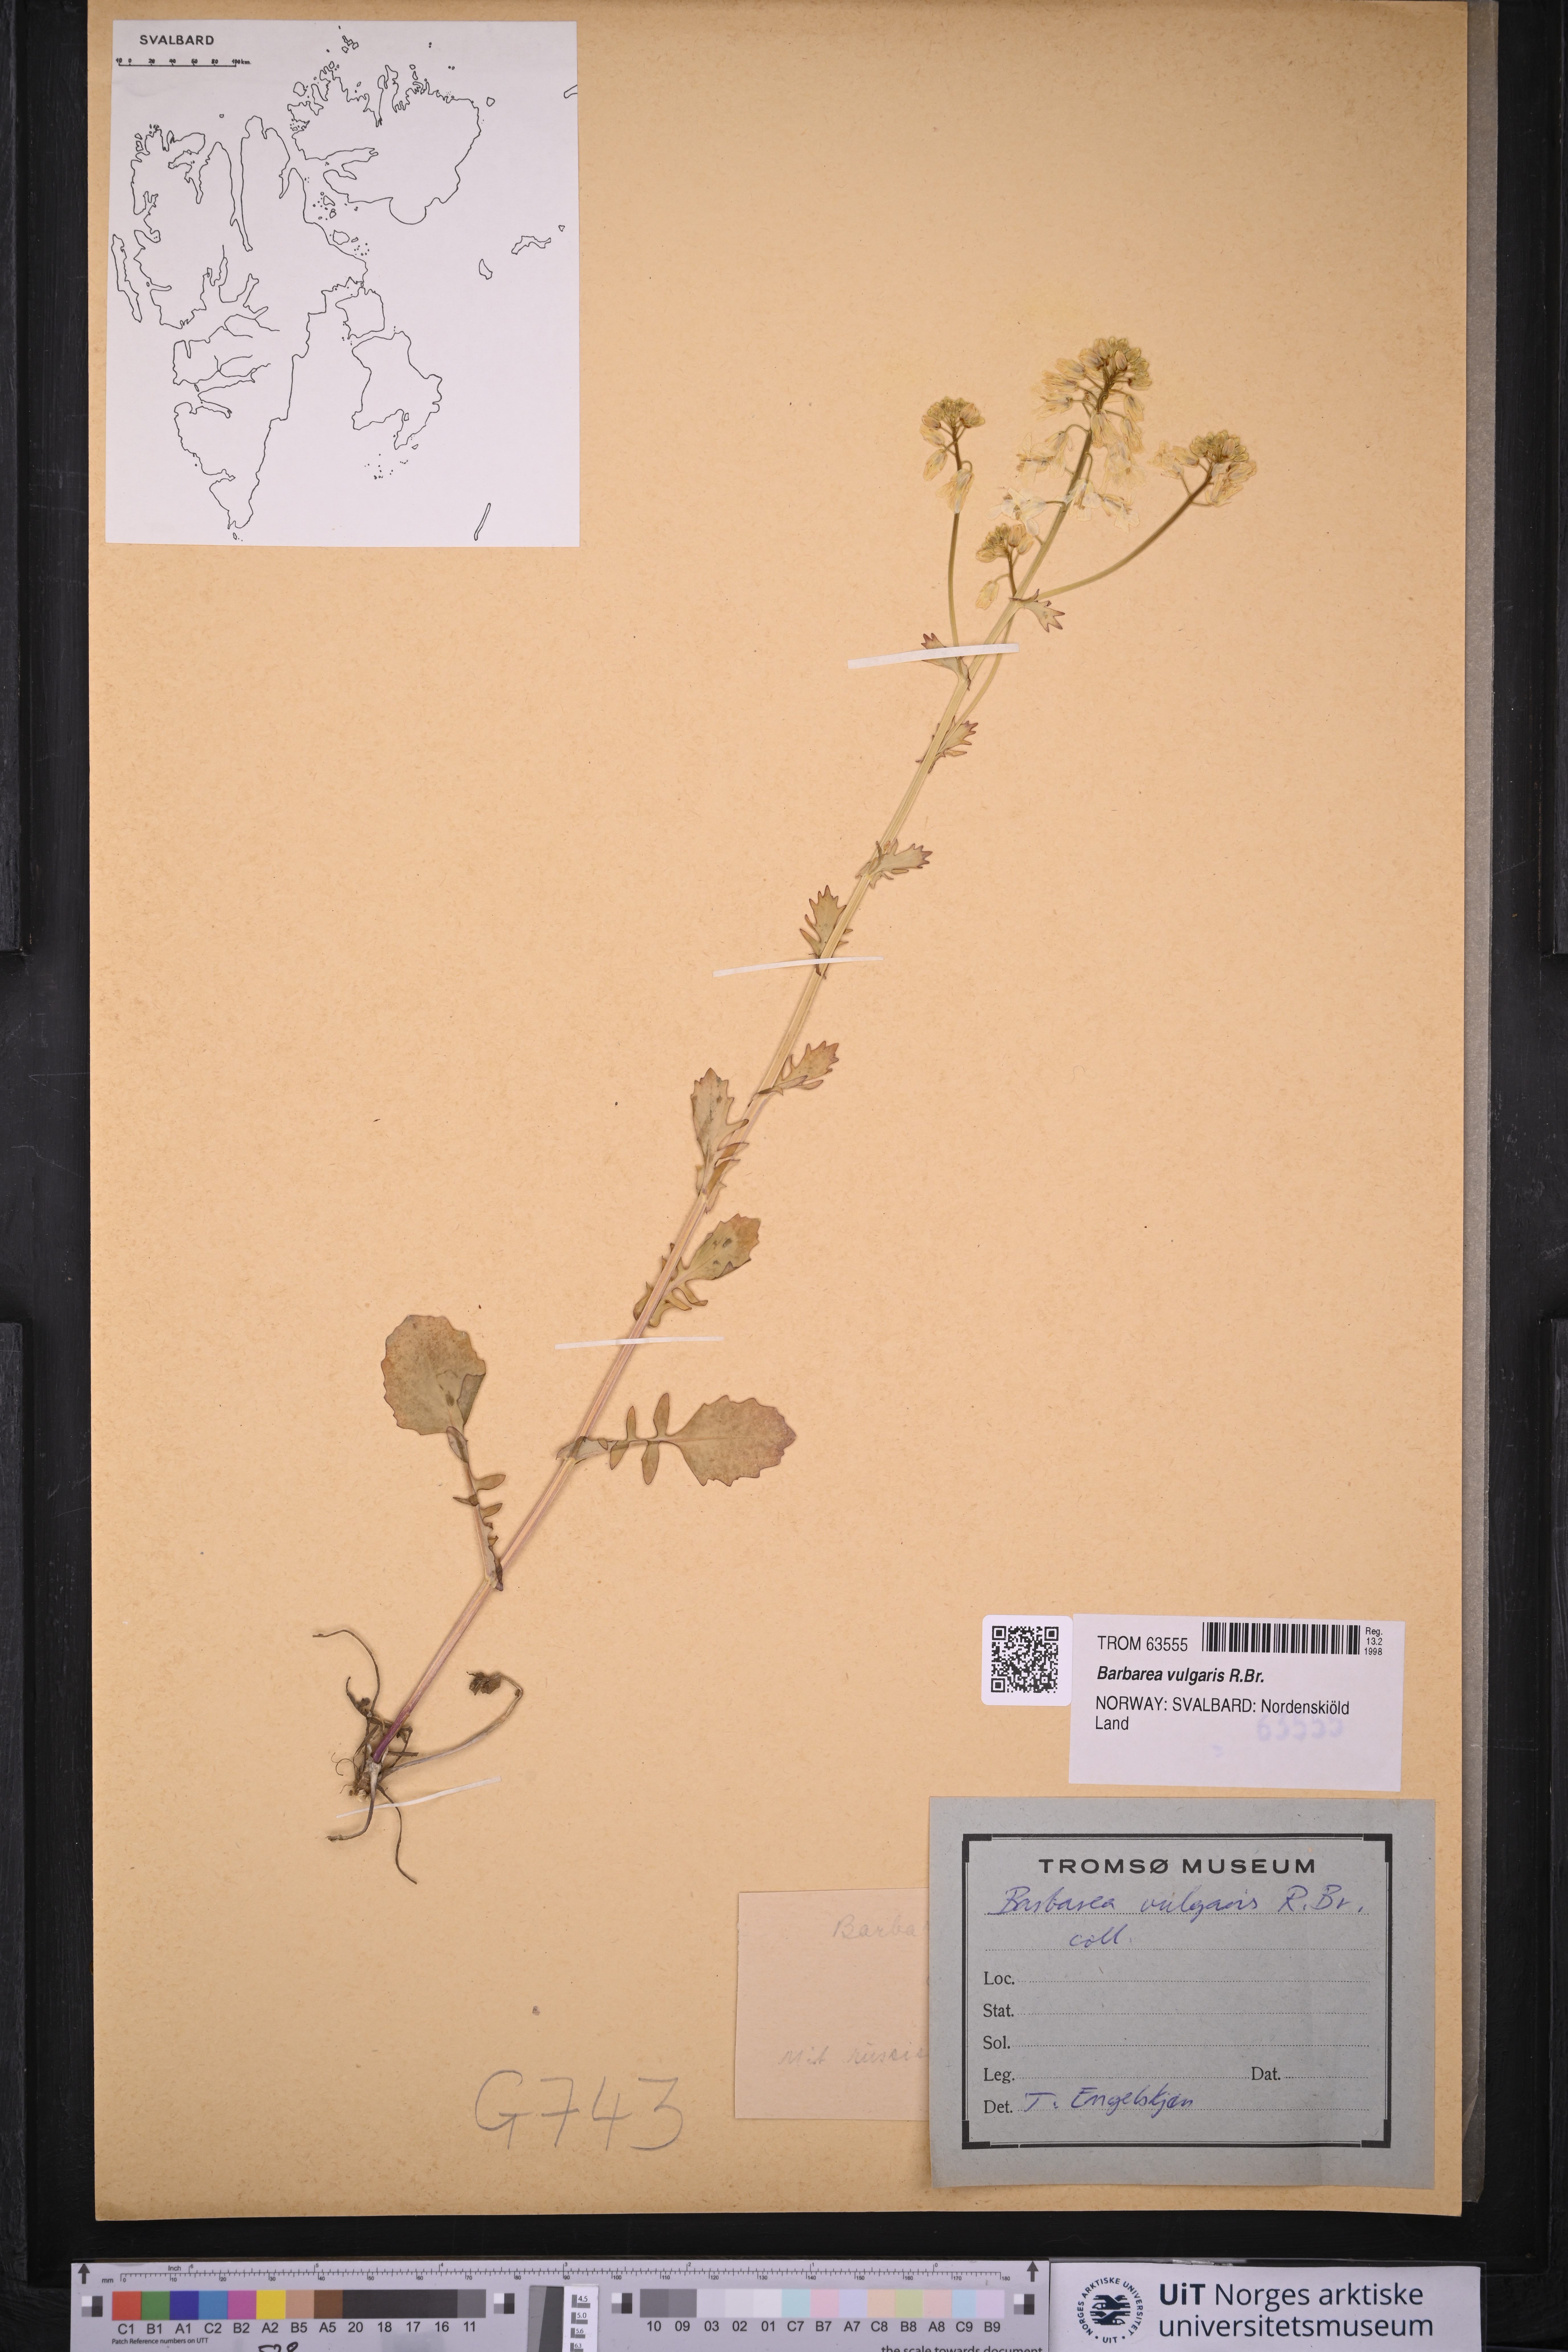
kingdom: Plantae
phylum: Tracheophyta
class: Magnoliopsida
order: Brassicales
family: Brassicaceae
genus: Barbarea
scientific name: Barbarea vulgaris
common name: Cressy-greens
